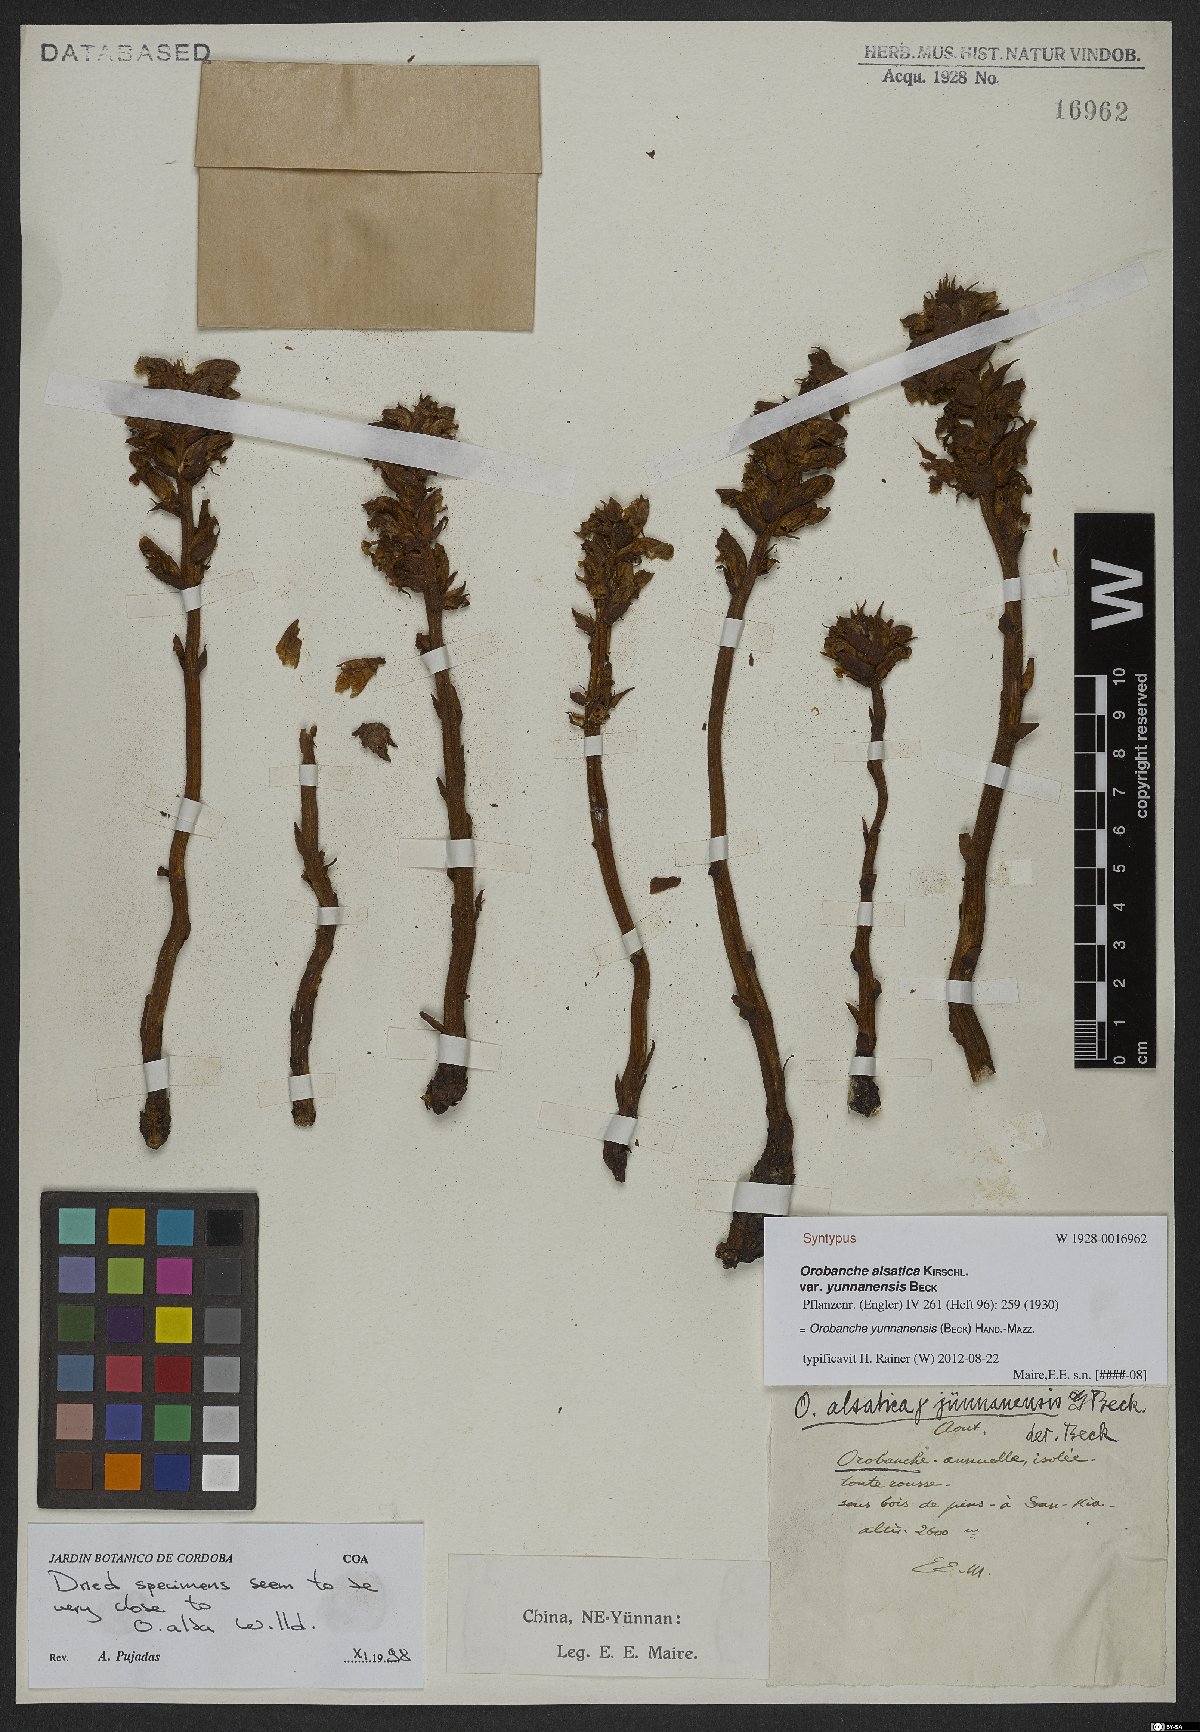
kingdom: Plantae
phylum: Tracheophyta
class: Magnoliopsida
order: Lamiales
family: Orobanchaceae
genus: Orobanche
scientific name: Orobanche yunnanensis
